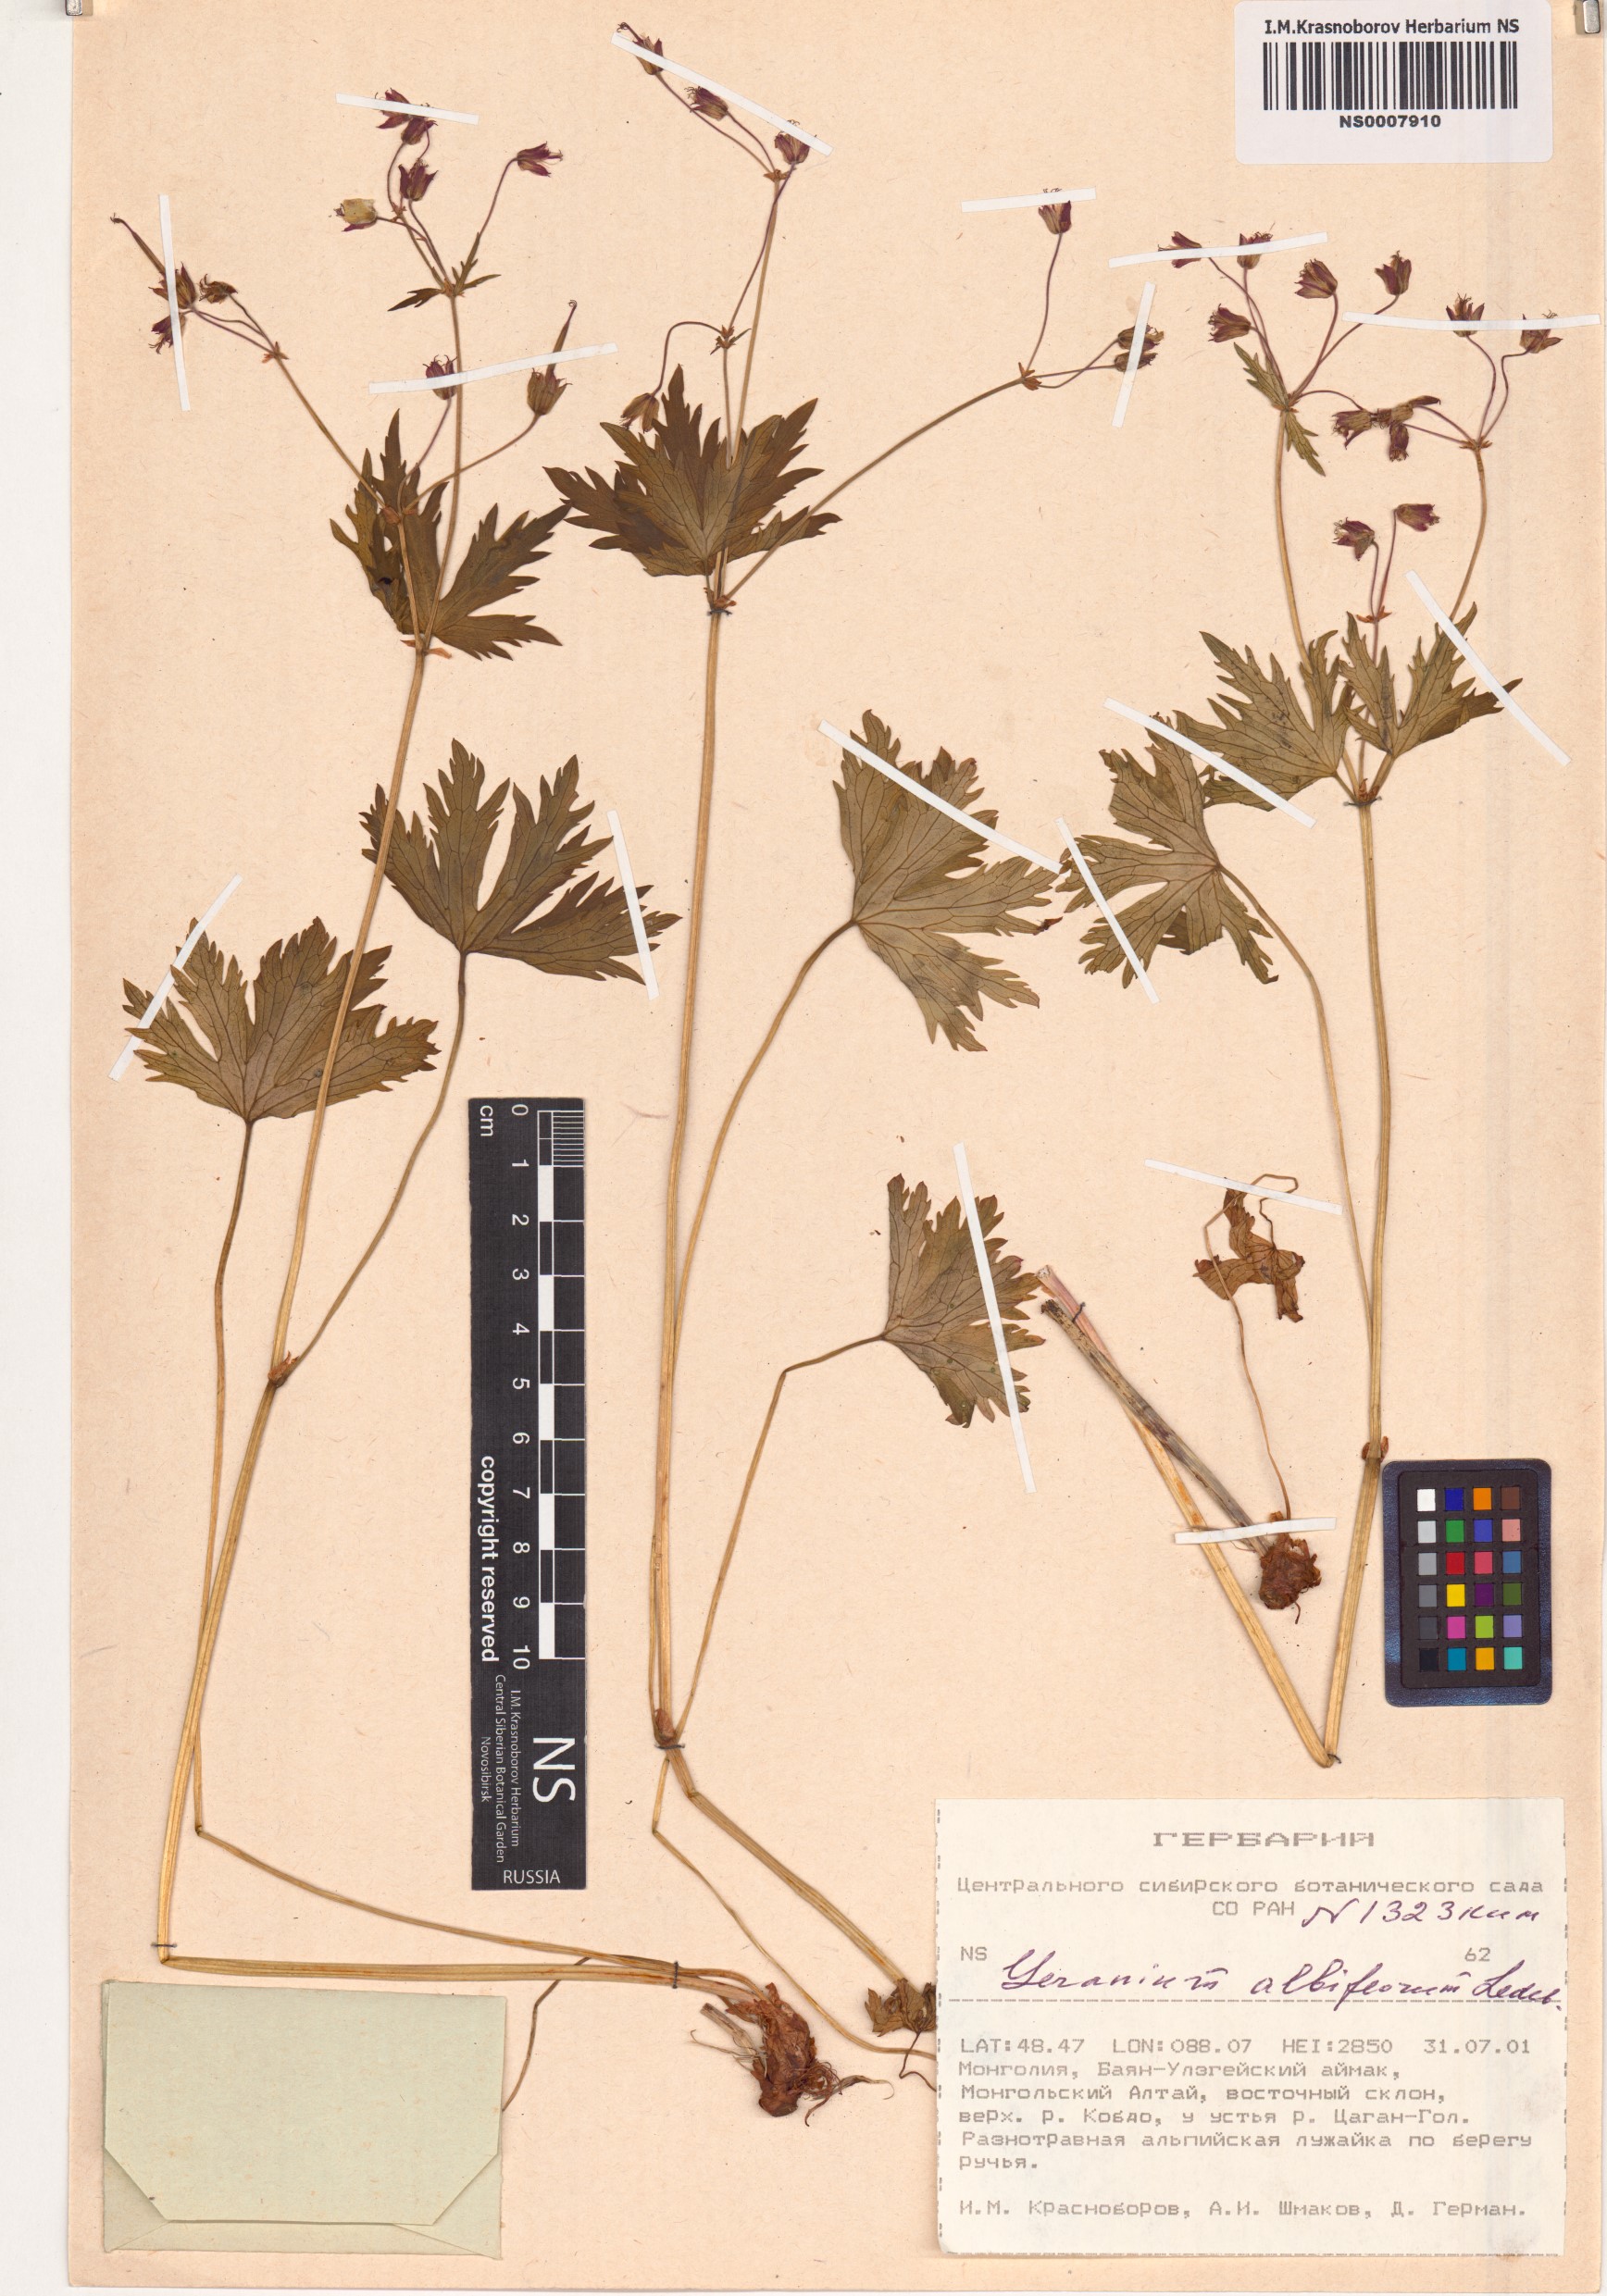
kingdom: Plantae
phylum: Tracheophyta
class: Magnoliopsida
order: Geraniales
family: Geraniaceae
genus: Geranium
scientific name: Geranium albiflorum
